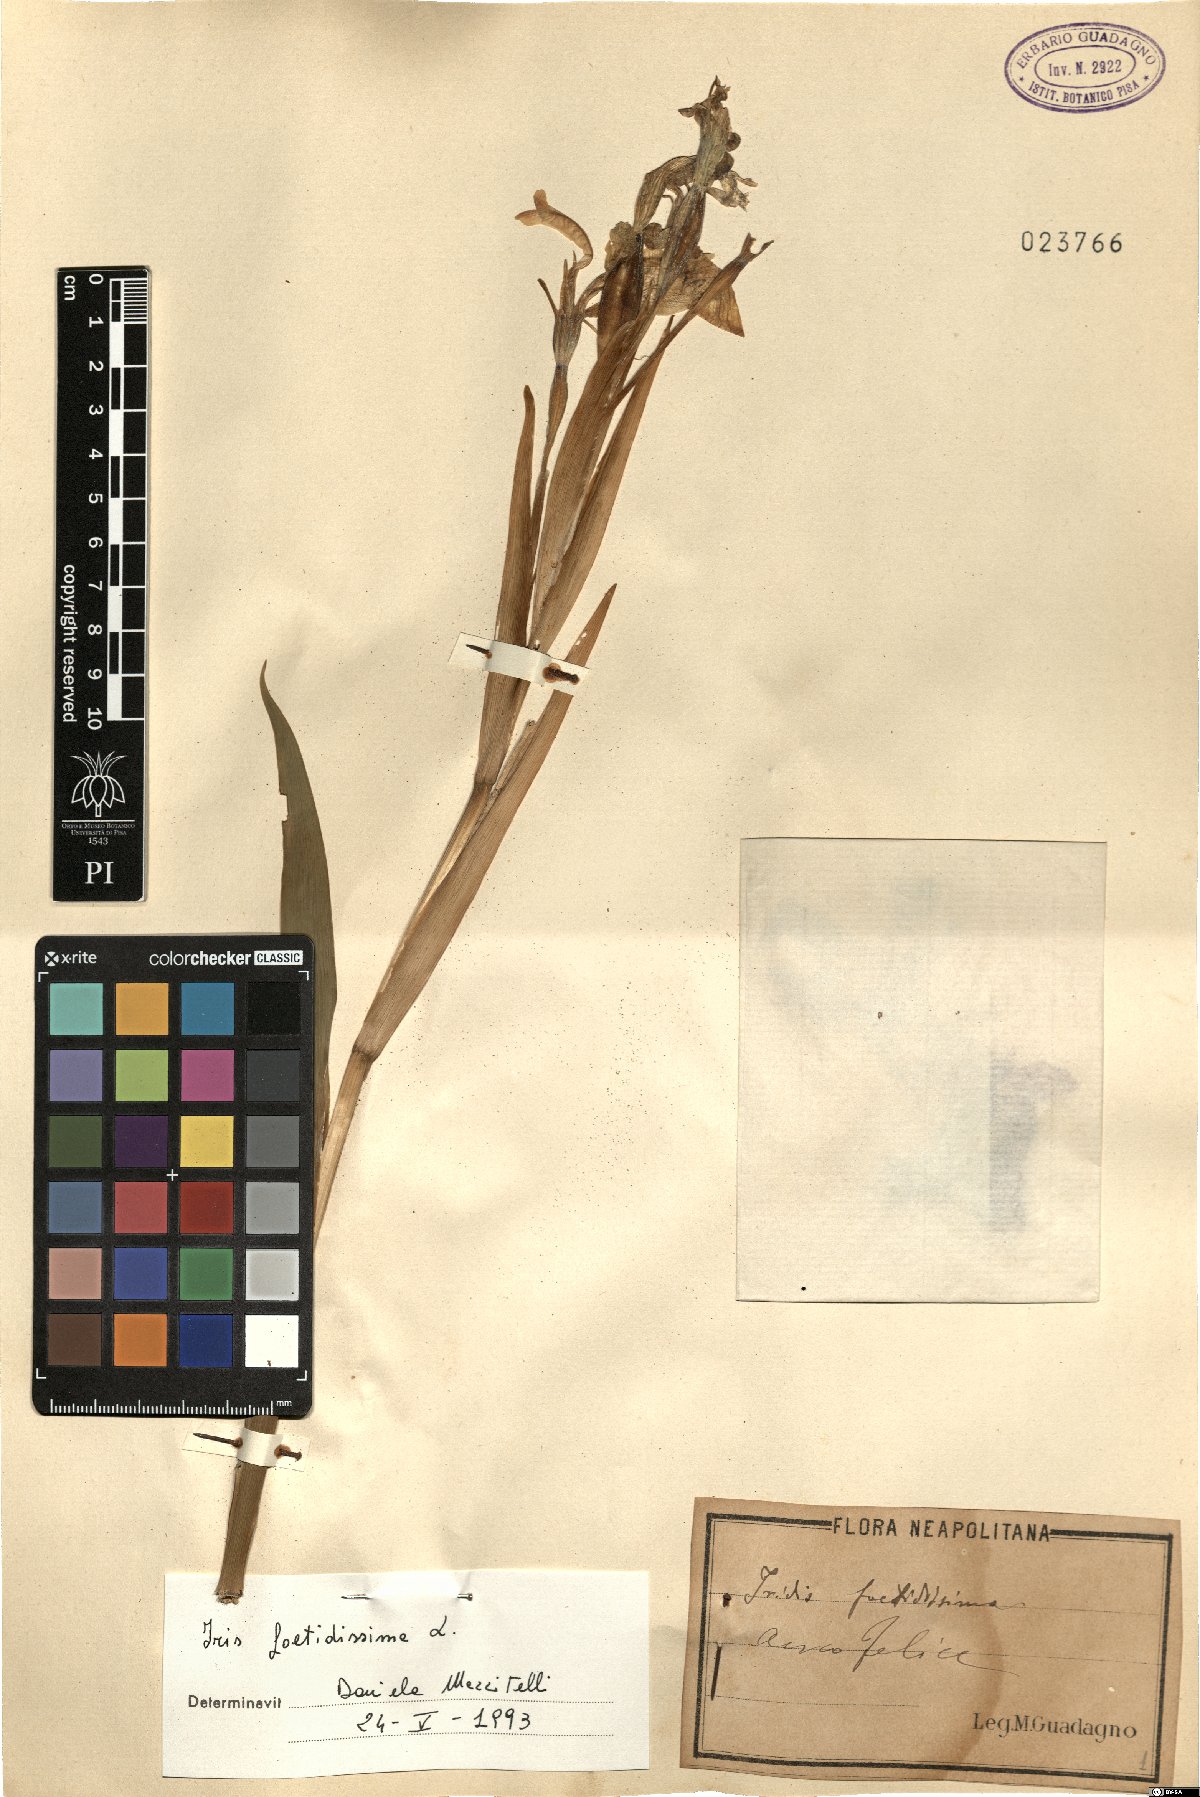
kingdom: Plantae
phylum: Tracheophyta
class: Liliopsida
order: Asparagales
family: Iridaceae
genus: Iris
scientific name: Iris foetidissima
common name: Stinking iris
